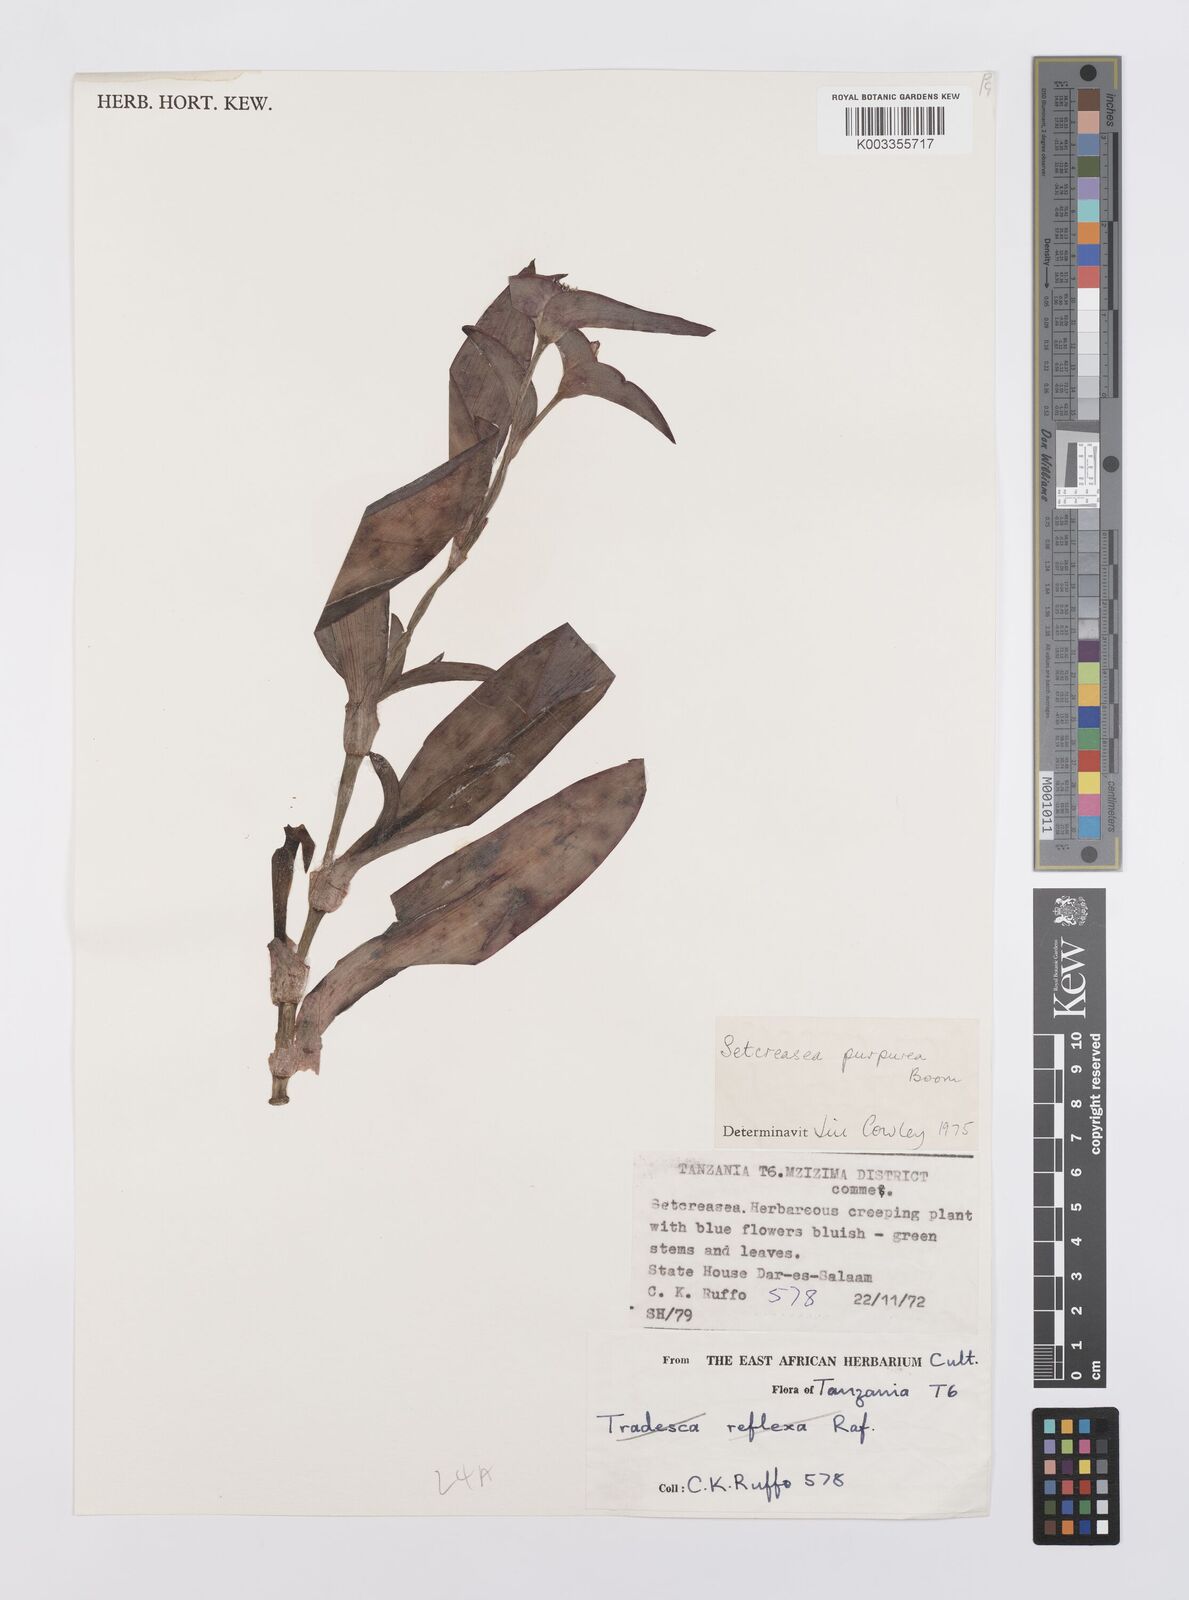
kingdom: Plantae
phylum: Tracheophyta
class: Liliopsida
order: Commelinales
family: Commelinaceae
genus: Callisia
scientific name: Callisia purpurascens
